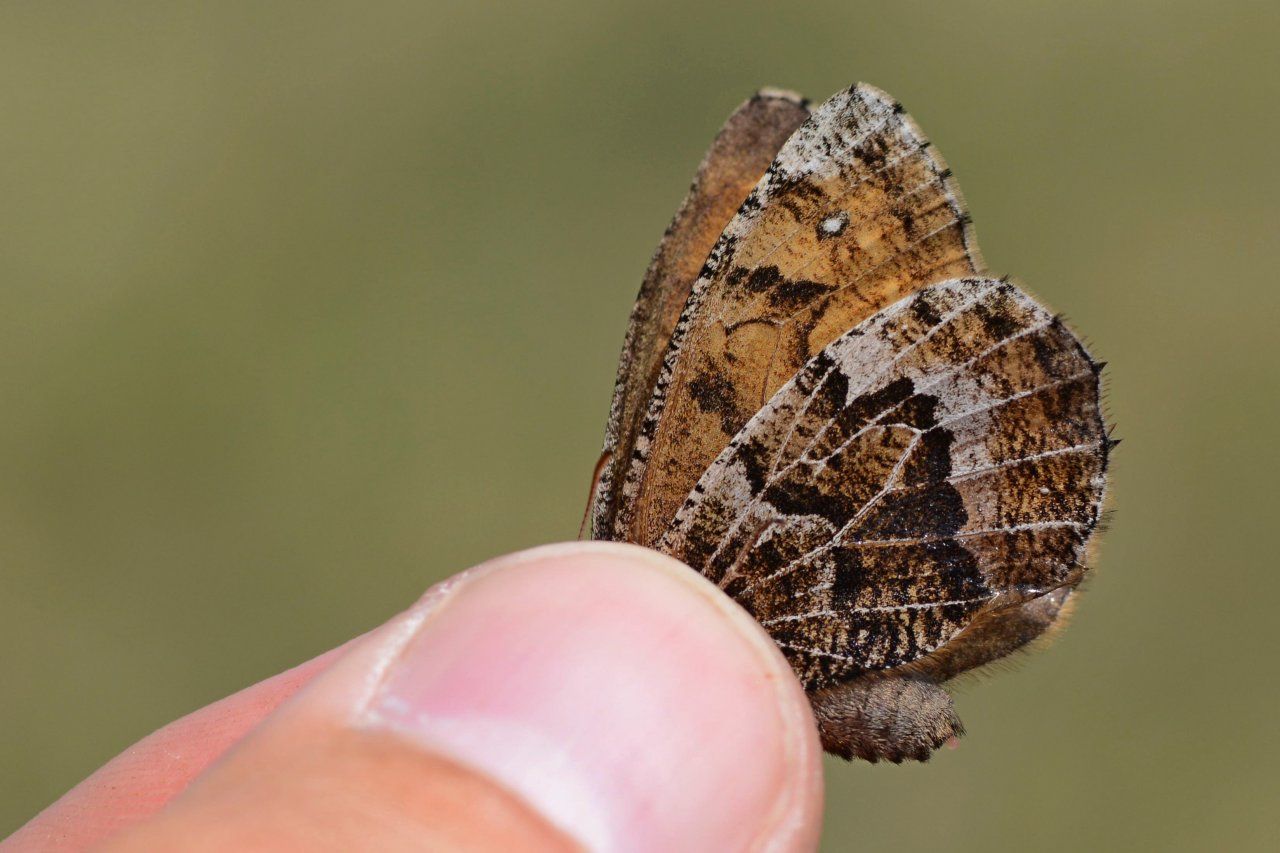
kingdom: Animalia
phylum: Arthropoda
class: Insecta
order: Lepidoptera
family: Nymphalidae
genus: Oeneis
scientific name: Oeneis bore
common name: White-veined Arctic
